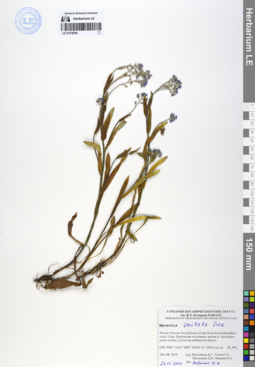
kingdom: Plantae
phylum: Tracheophyta
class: Magnoliopsida
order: Boraginales
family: Boraginaceae
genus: Myosotis
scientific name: Myosotis imitata
